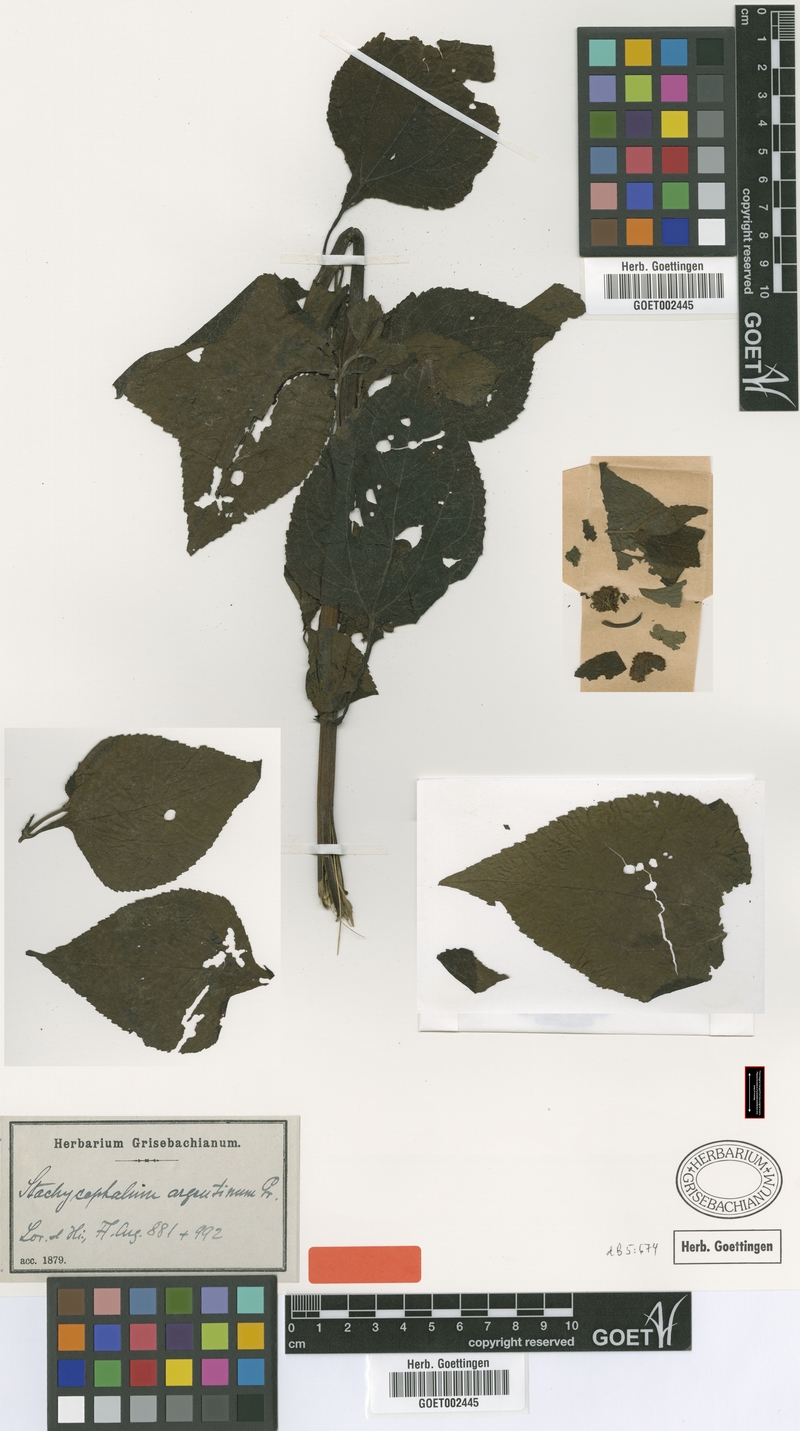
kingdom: Plantae
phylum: Tracheophyta
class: Magnoliopsida
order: Asterales
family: Asteraceae
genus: Stachycephalum
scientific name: Stachycephalum argentinum
